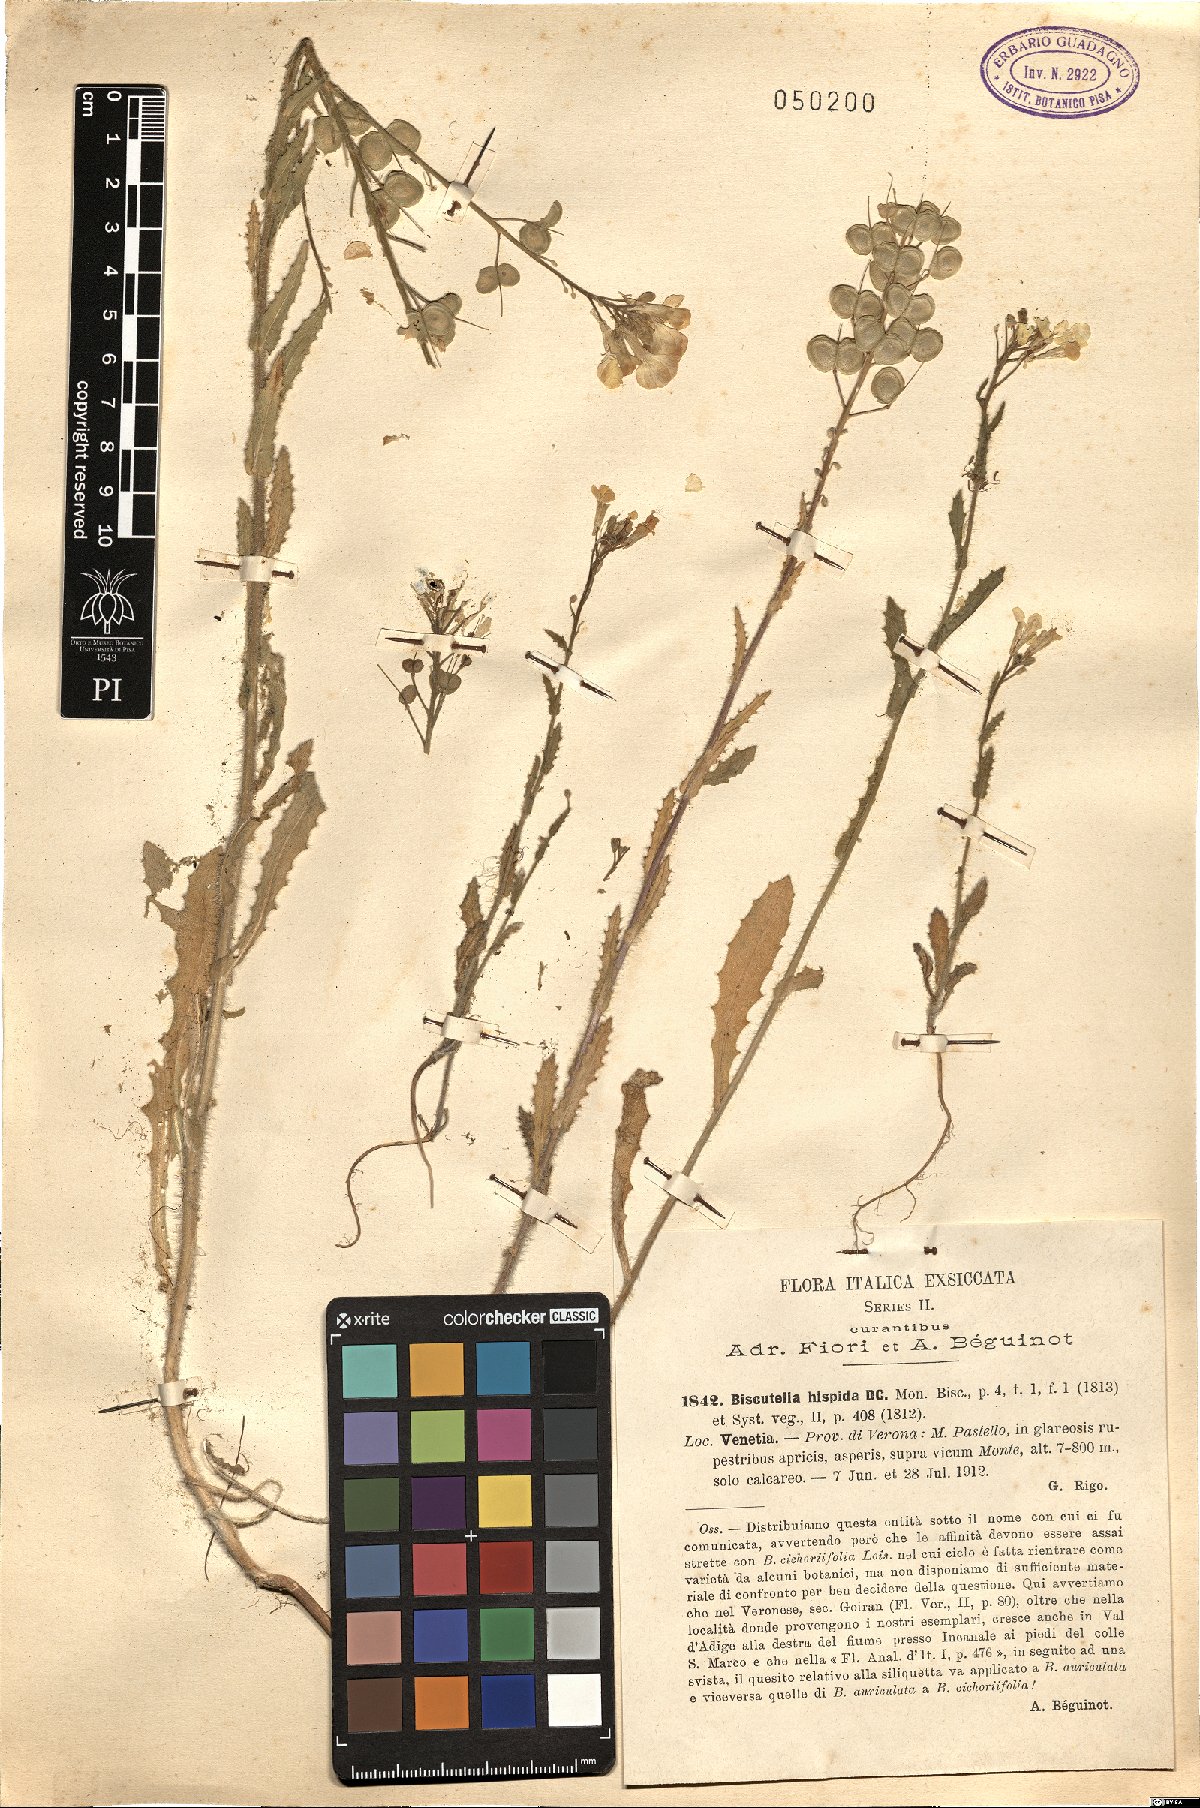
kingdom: Plantae
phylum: Tracheophyta
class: Magnoliopsida
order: Brassicales
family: Brassicaceae
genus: Biscutella
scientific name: Biscutella cichoriifolia
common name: Chicory-leaf buckler mustard
